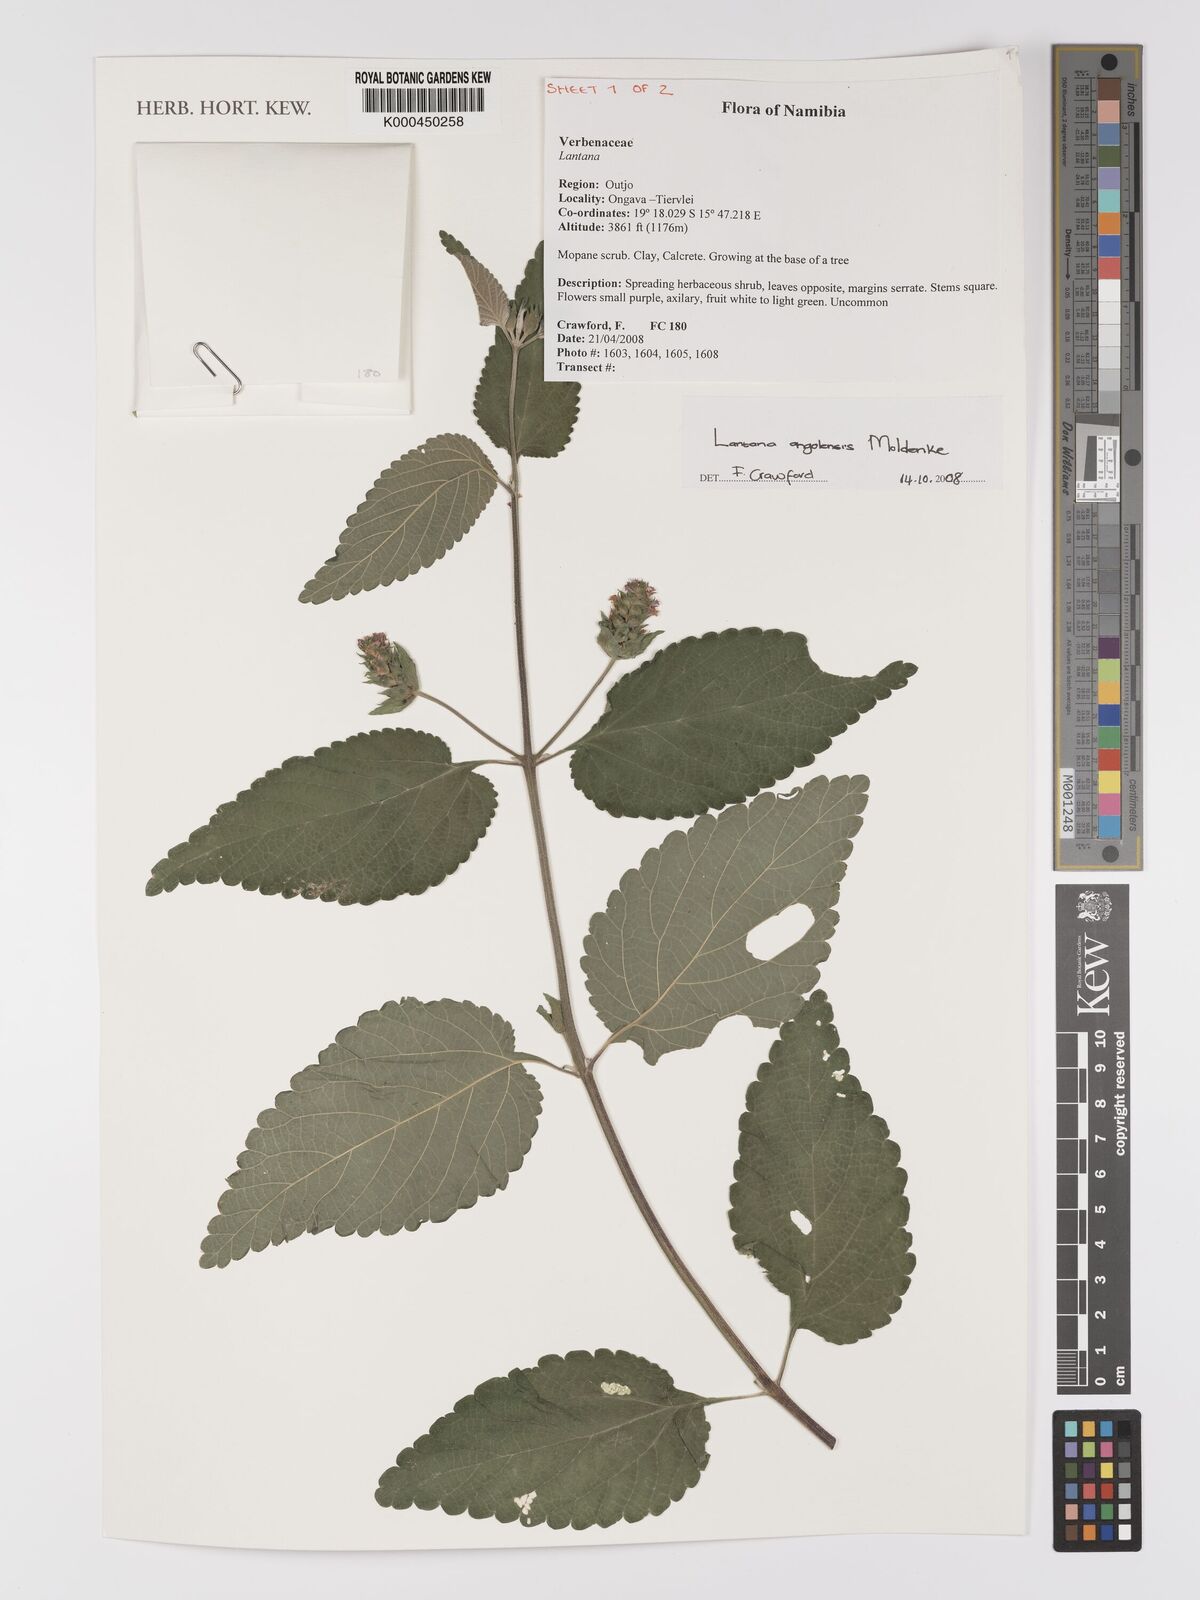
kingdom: Plantae
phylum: Tracheophyta
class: Magnoliopsida
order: Lamiales
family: Verbenaceae
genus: Lantana
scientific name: Lantana angolensis
